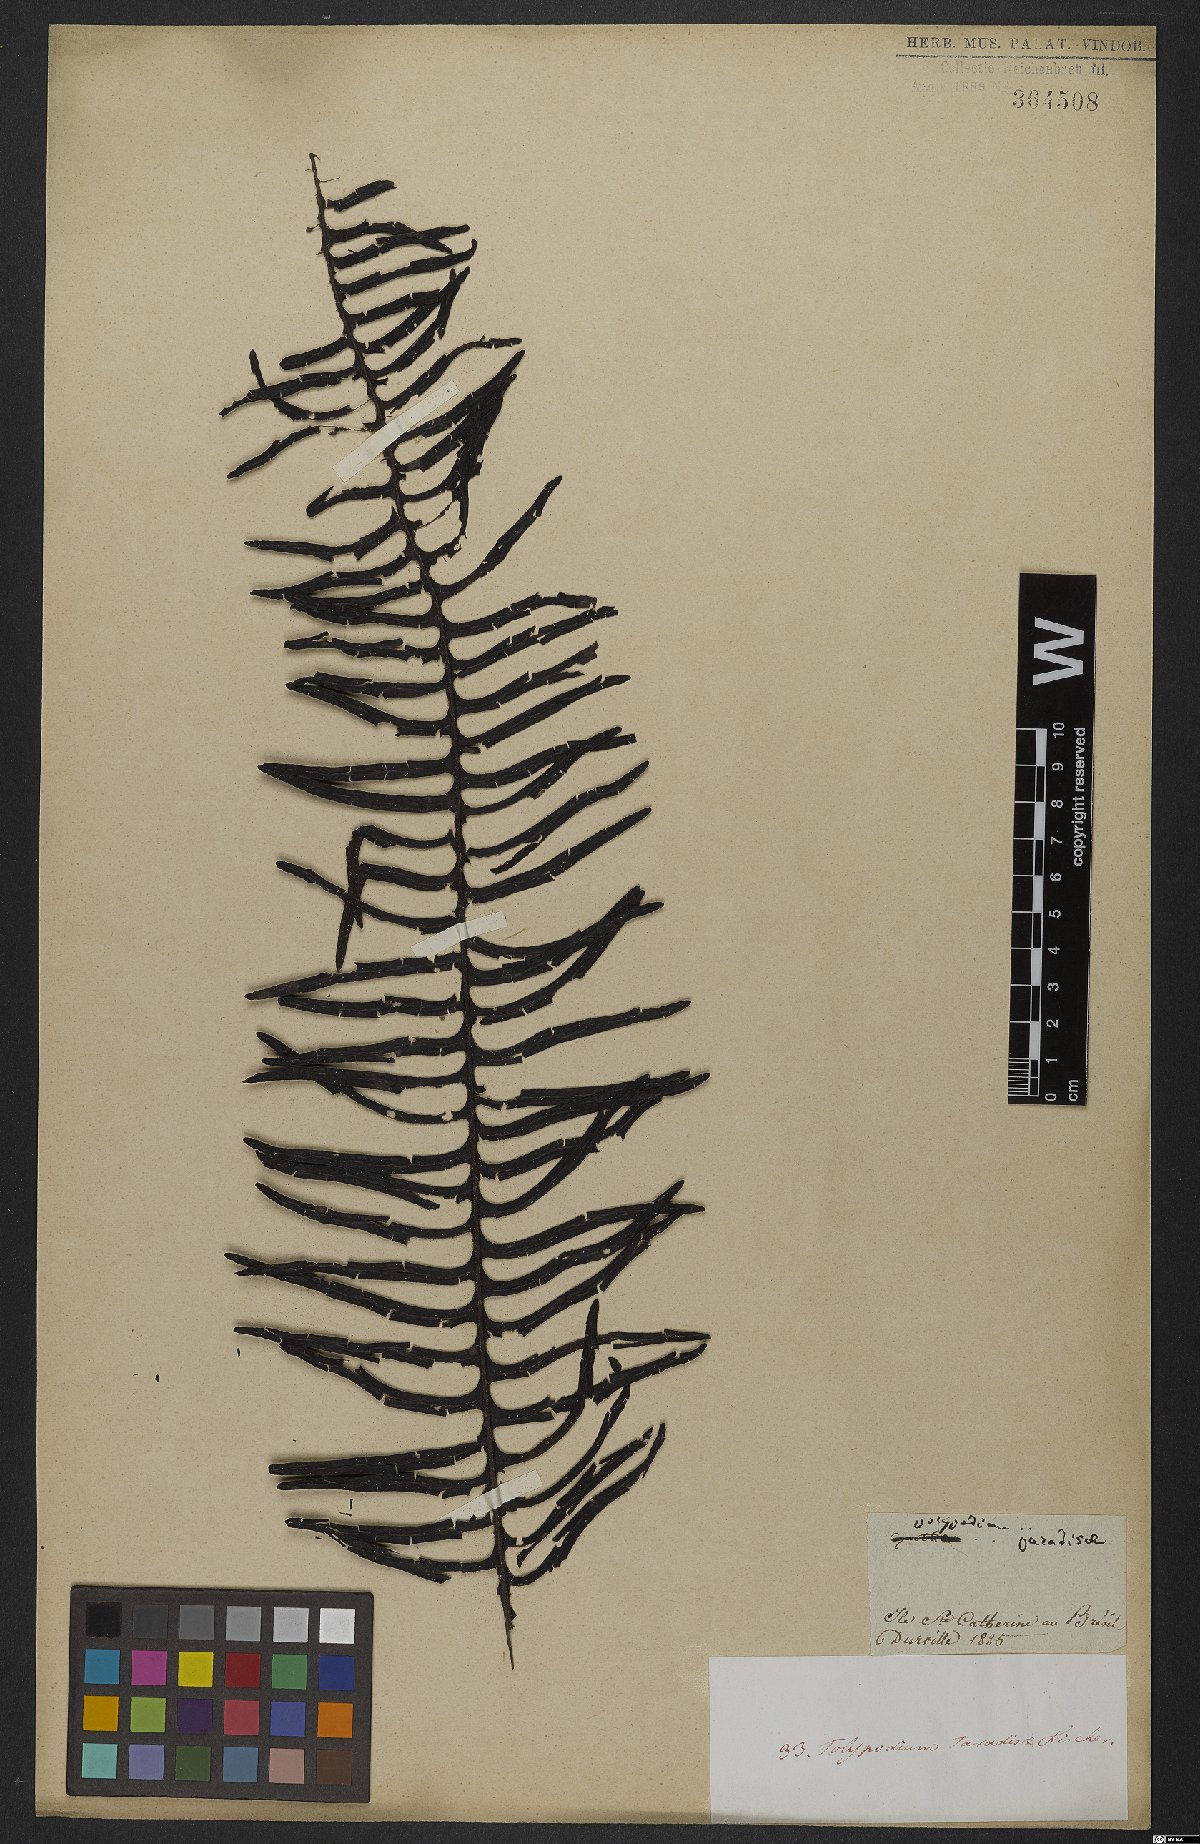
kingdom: Plantae
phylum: Tracheophyta
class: Polypodiopsida
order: Polypodiales
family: Polypodiaceae
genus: Pecluma
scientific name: Pecluma paradiseae
